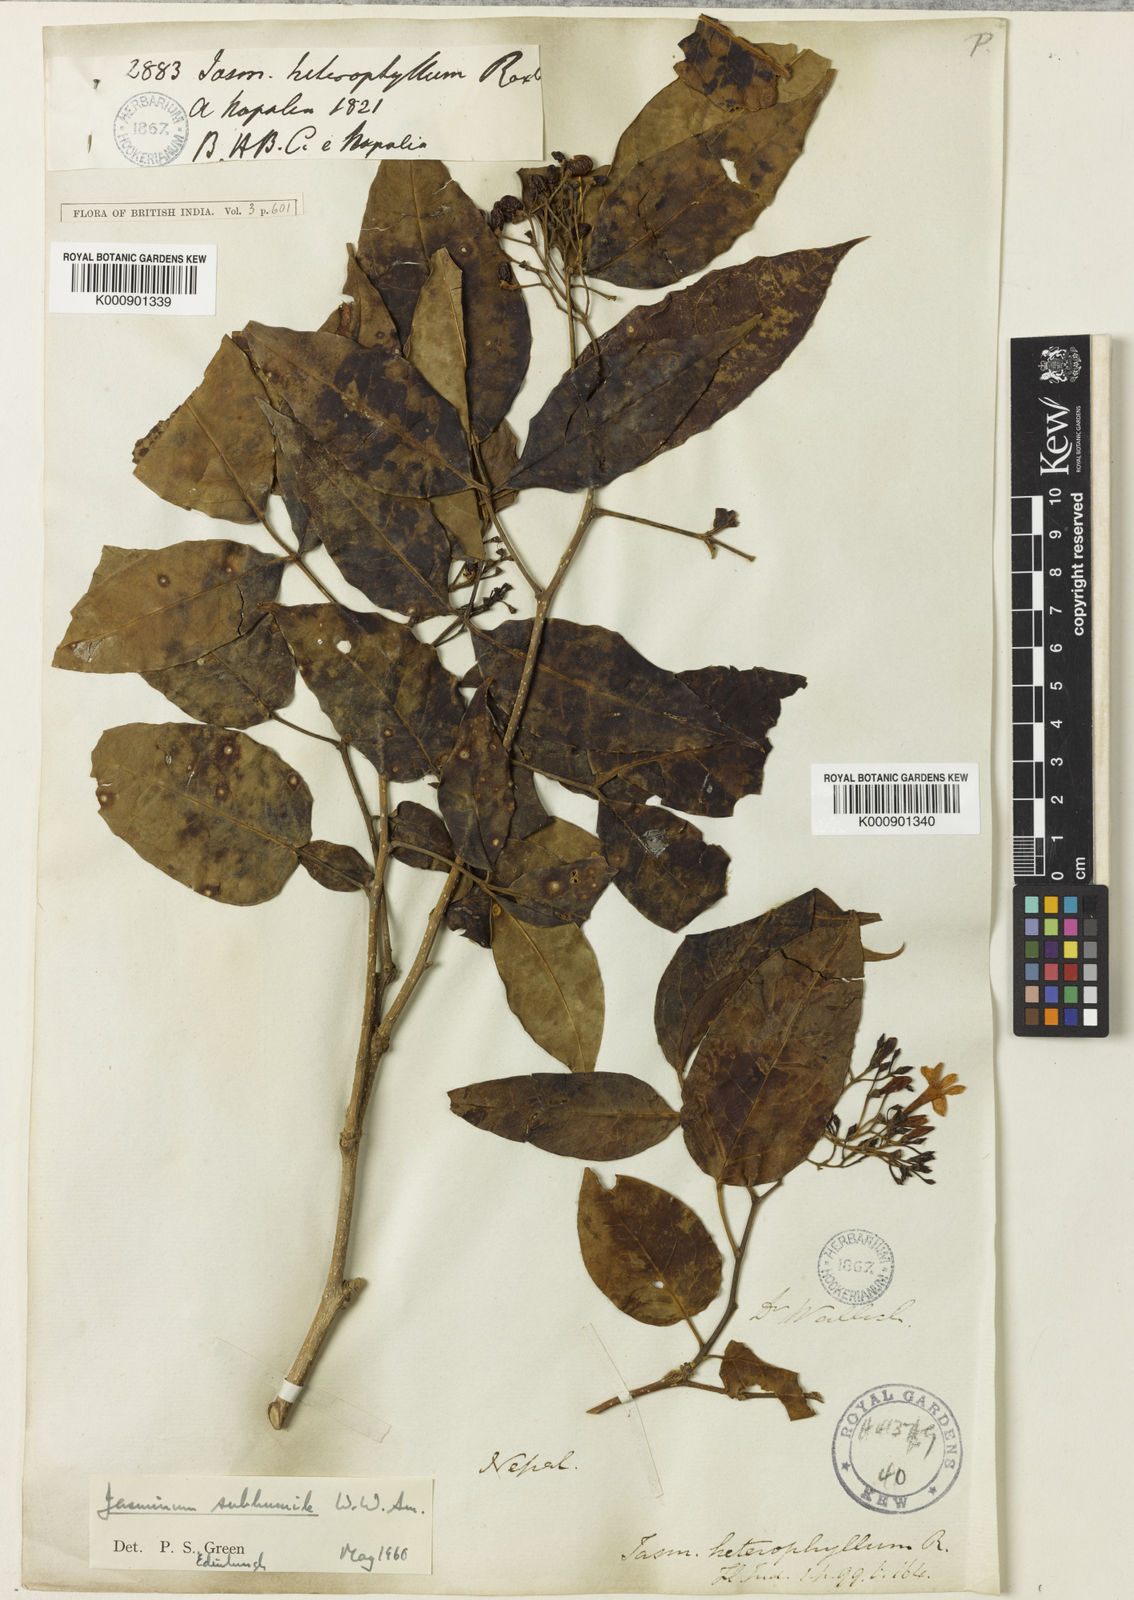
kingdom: Plantae
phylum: Tracheophyta
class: Magnoliopsida
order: Lamiales
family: Oleaceae
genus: Chrysojasminum
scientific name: Chrysojasminum subhumile
